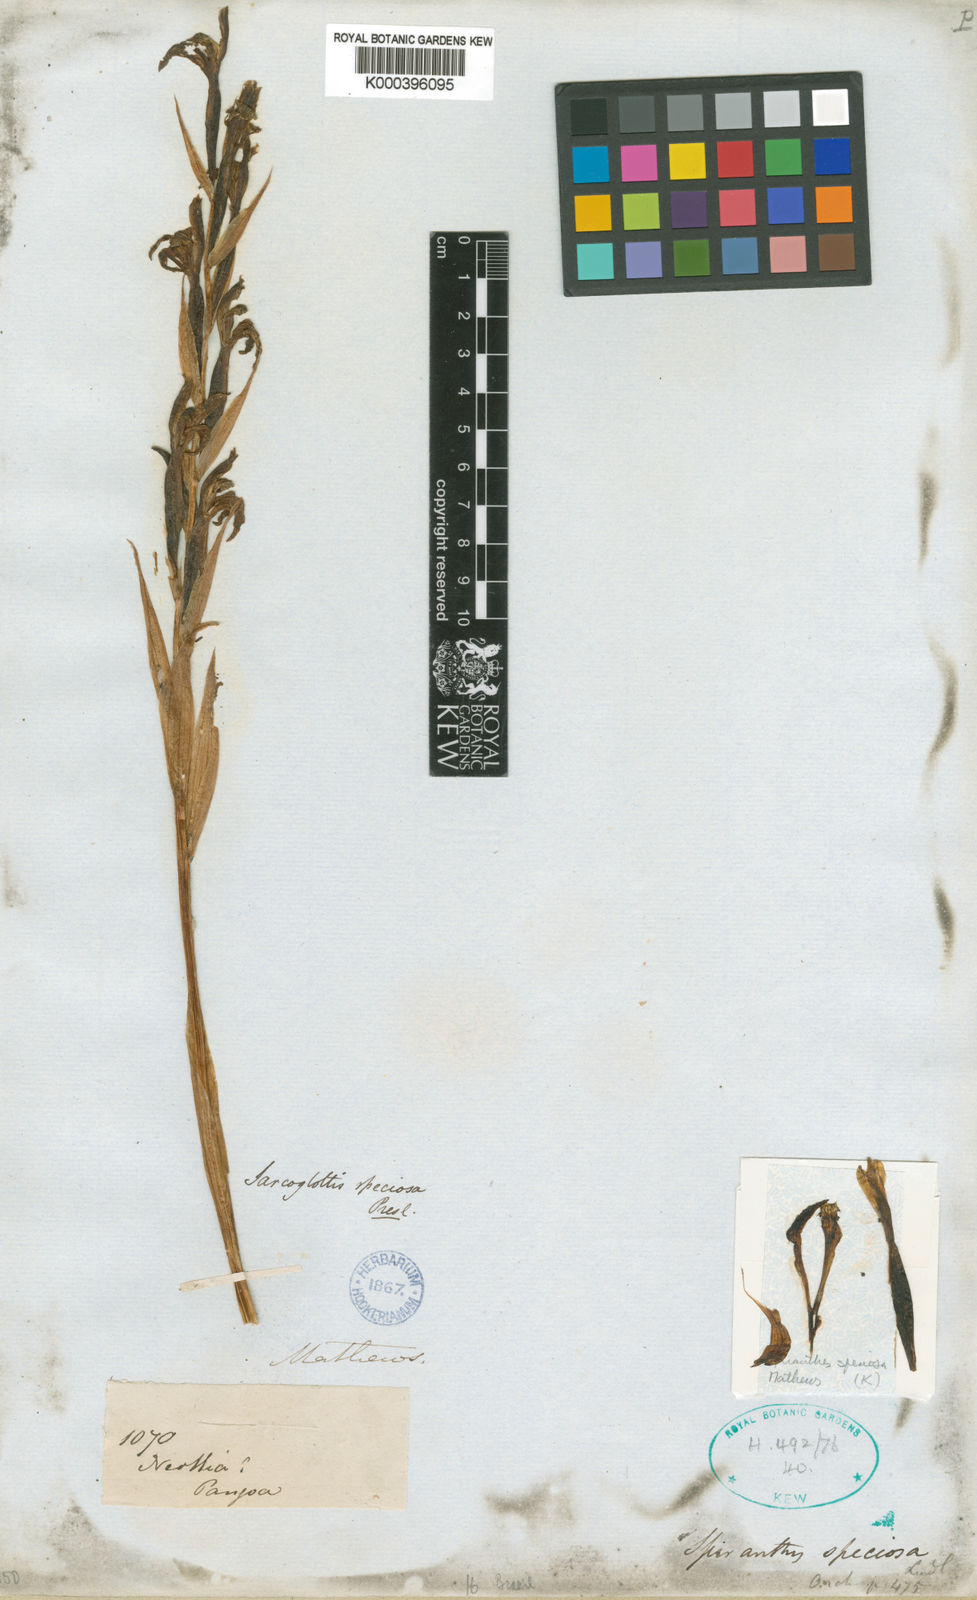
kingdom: Plantae
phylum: Tracheophyta
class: Liliopsida
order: Asparagales
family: Orchidaceae
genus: Sarcoglottis
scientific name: Sarcoglottis acaulis
